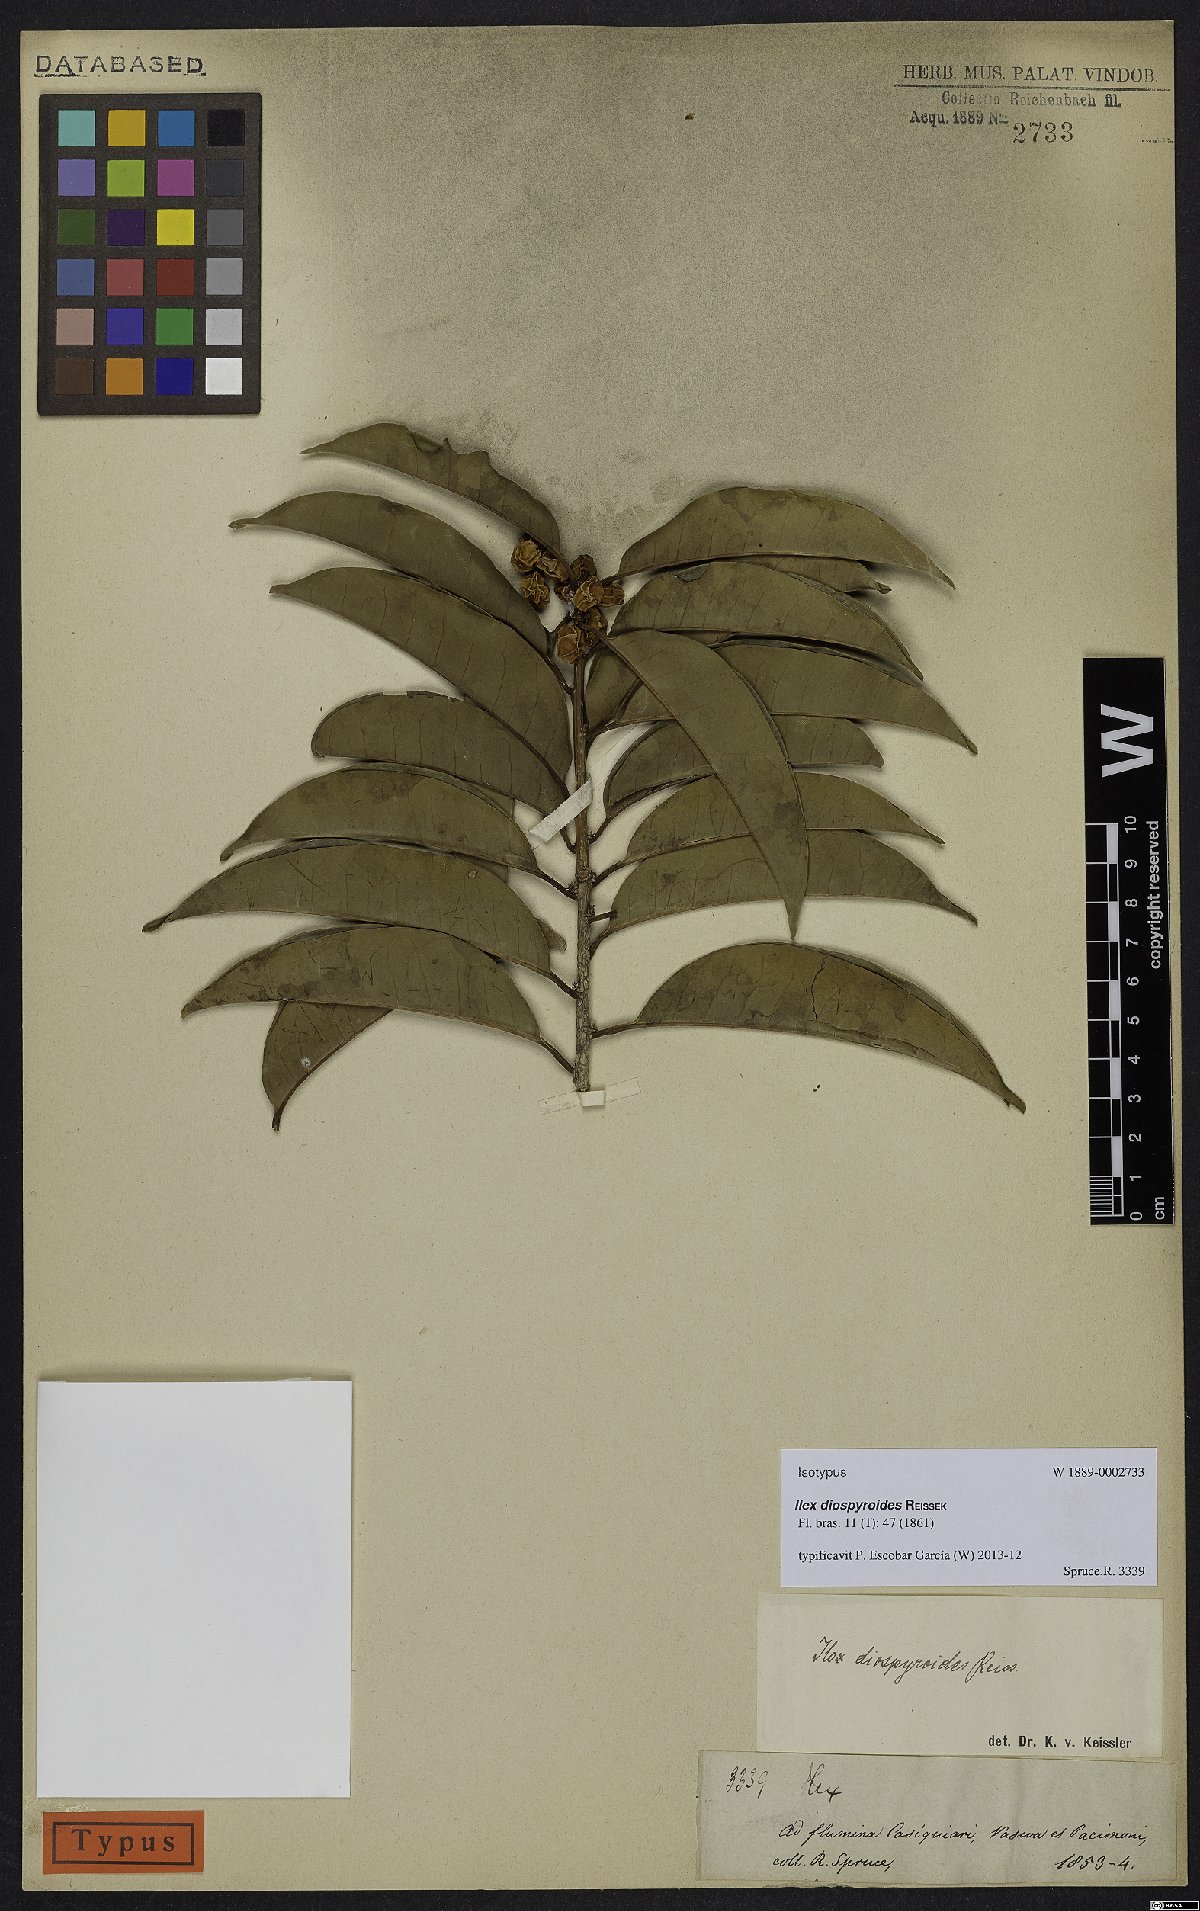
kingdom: Plantae
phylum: Tracheophyta
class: Magnoliopsida
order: Aquifoliales
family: Aquifoliaceae
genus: Ilex
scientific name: Ilex diospyroides
